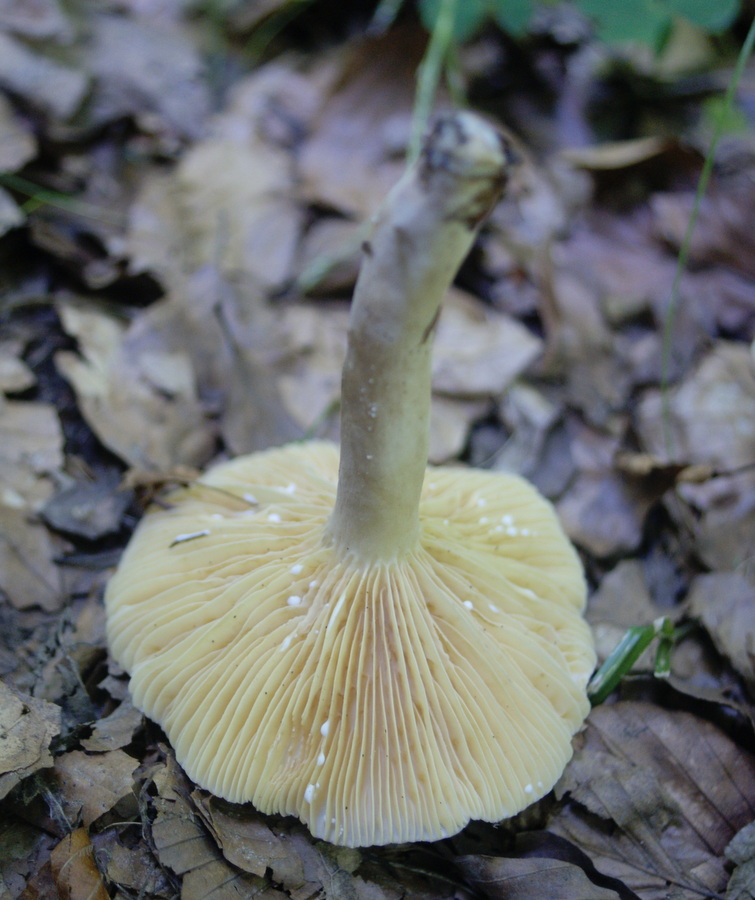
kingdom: Fungi
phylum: Basidiomycota
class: Agaricomycetes
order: Russulales
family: Russulaceae
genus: Lactarius
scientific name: Lactarius romagnesii
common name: fjernbladet mælkehat
